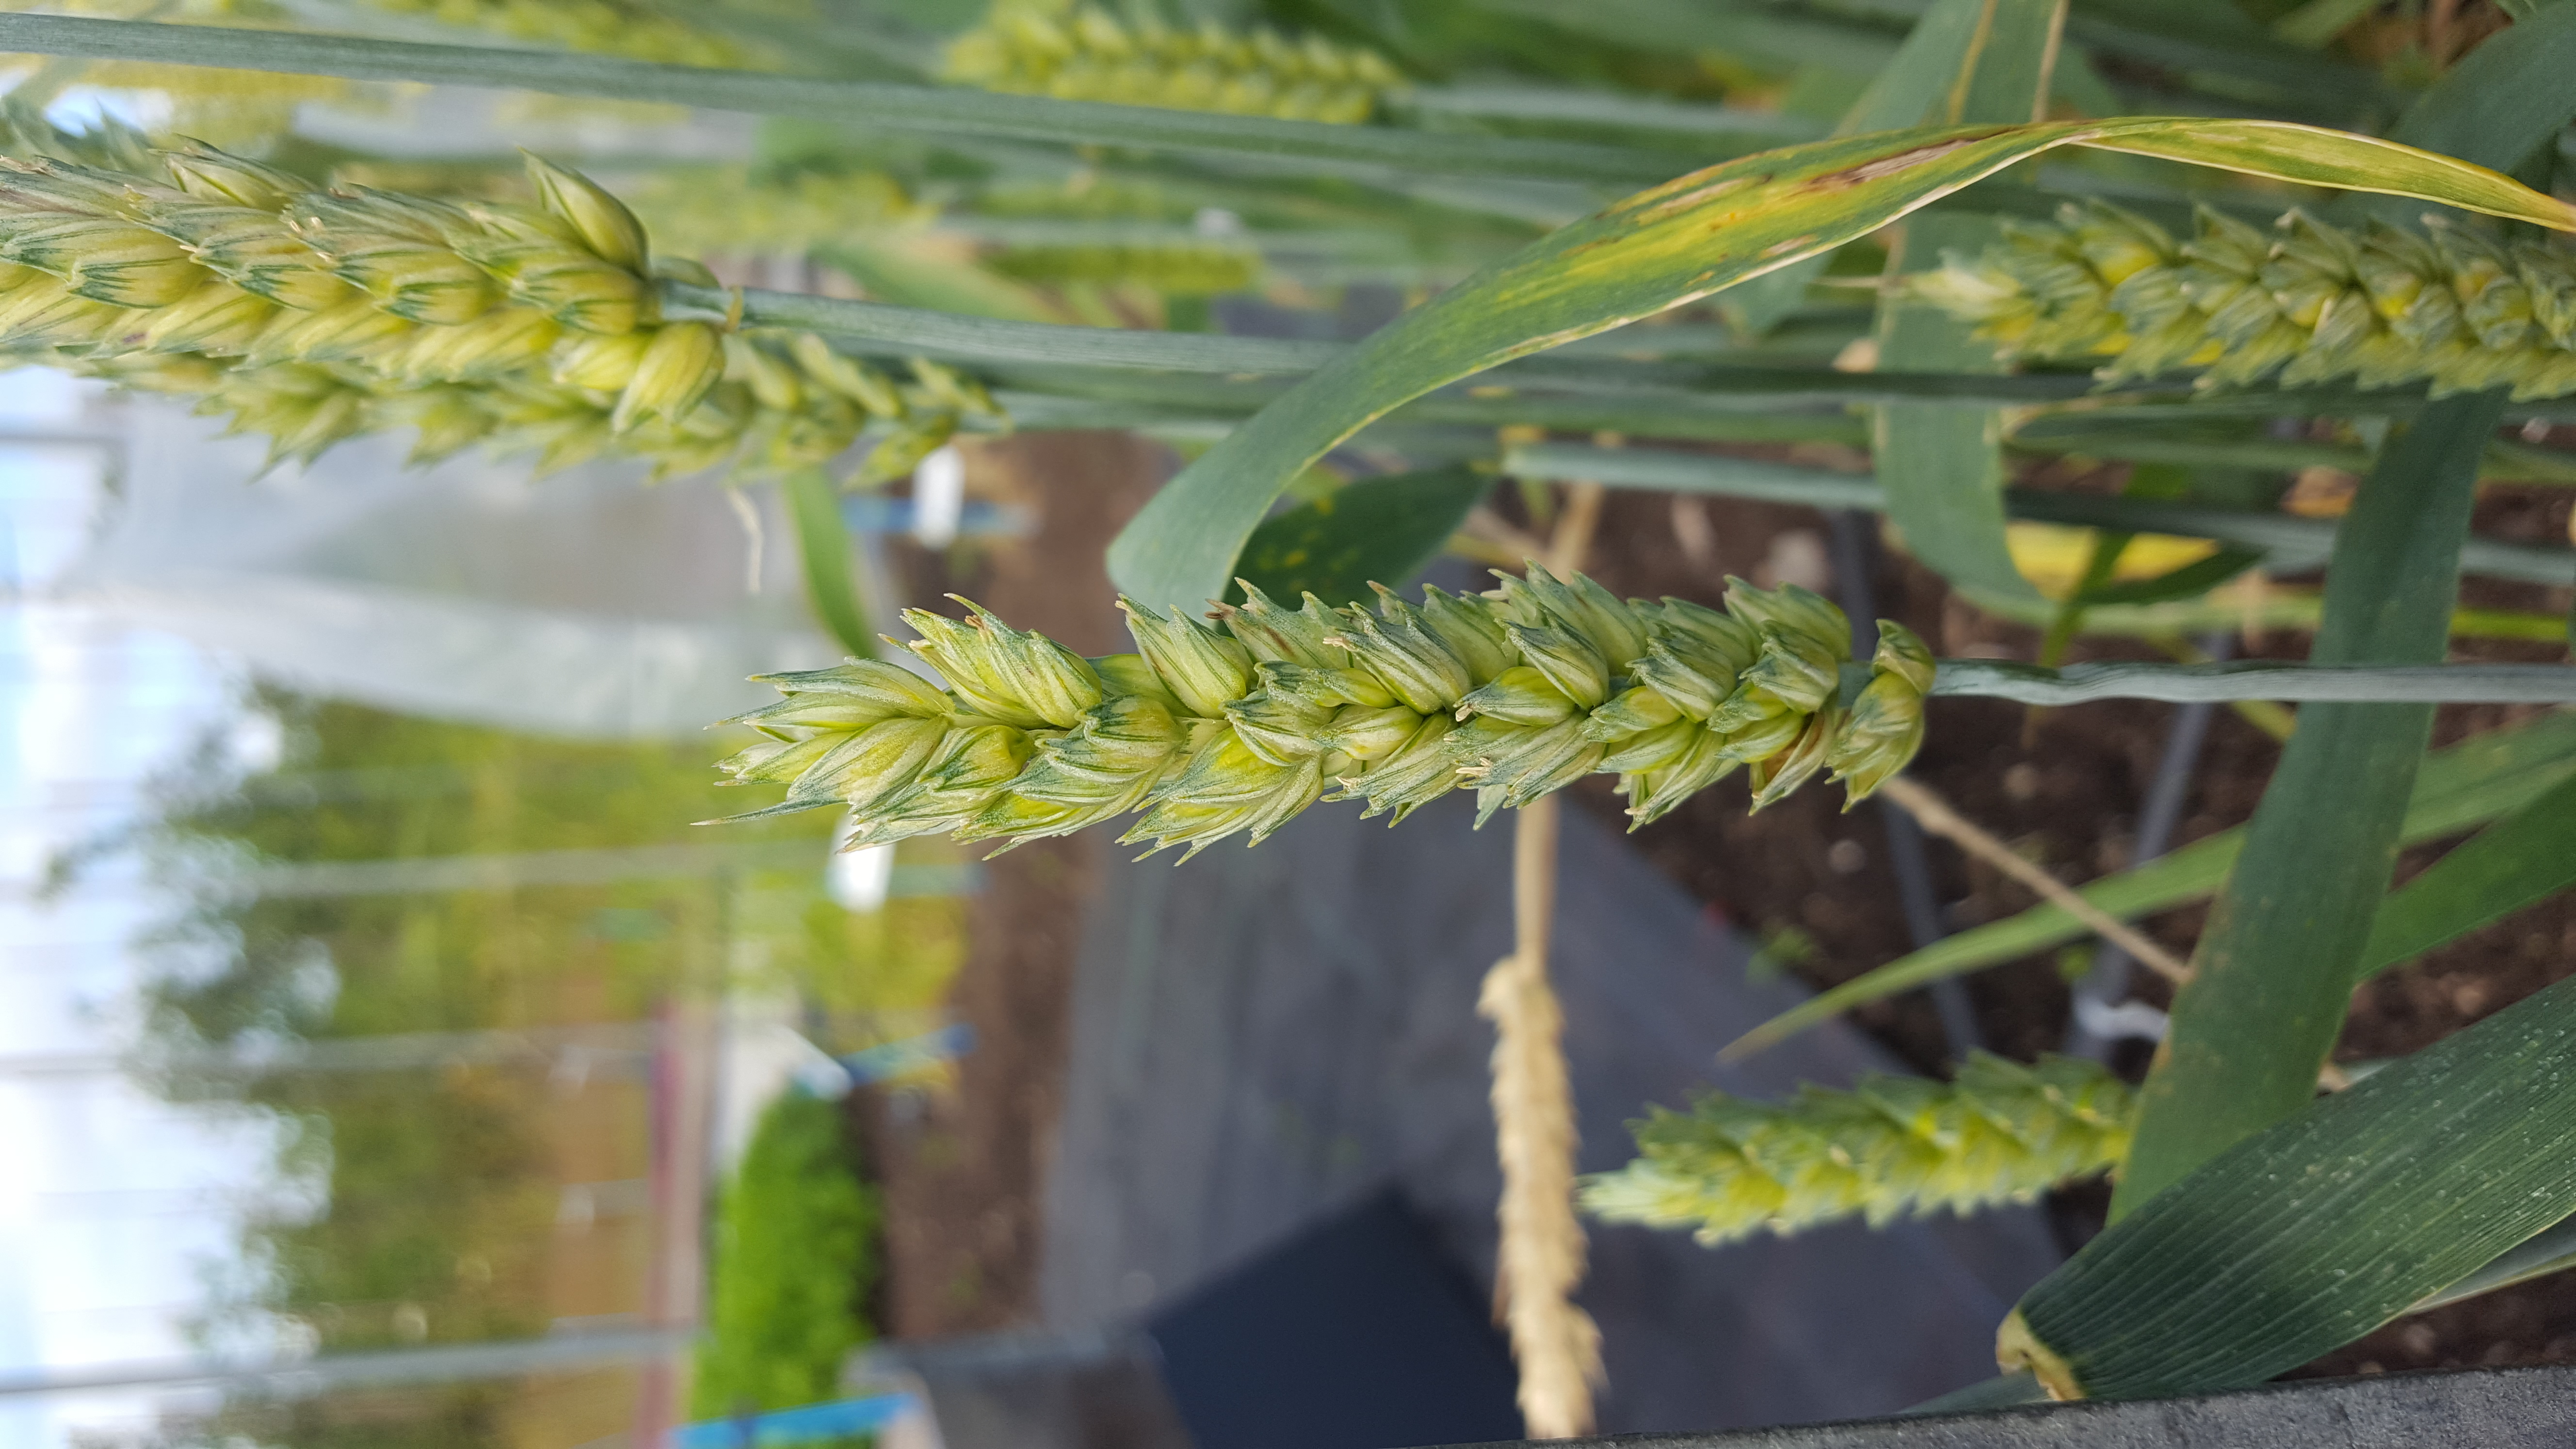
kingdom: Plantae
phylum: Tracheophyta
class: Liliopsida
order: Poales
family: Poaceae
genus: Triticum
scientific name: Triticum aestivum
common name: Common wheat
